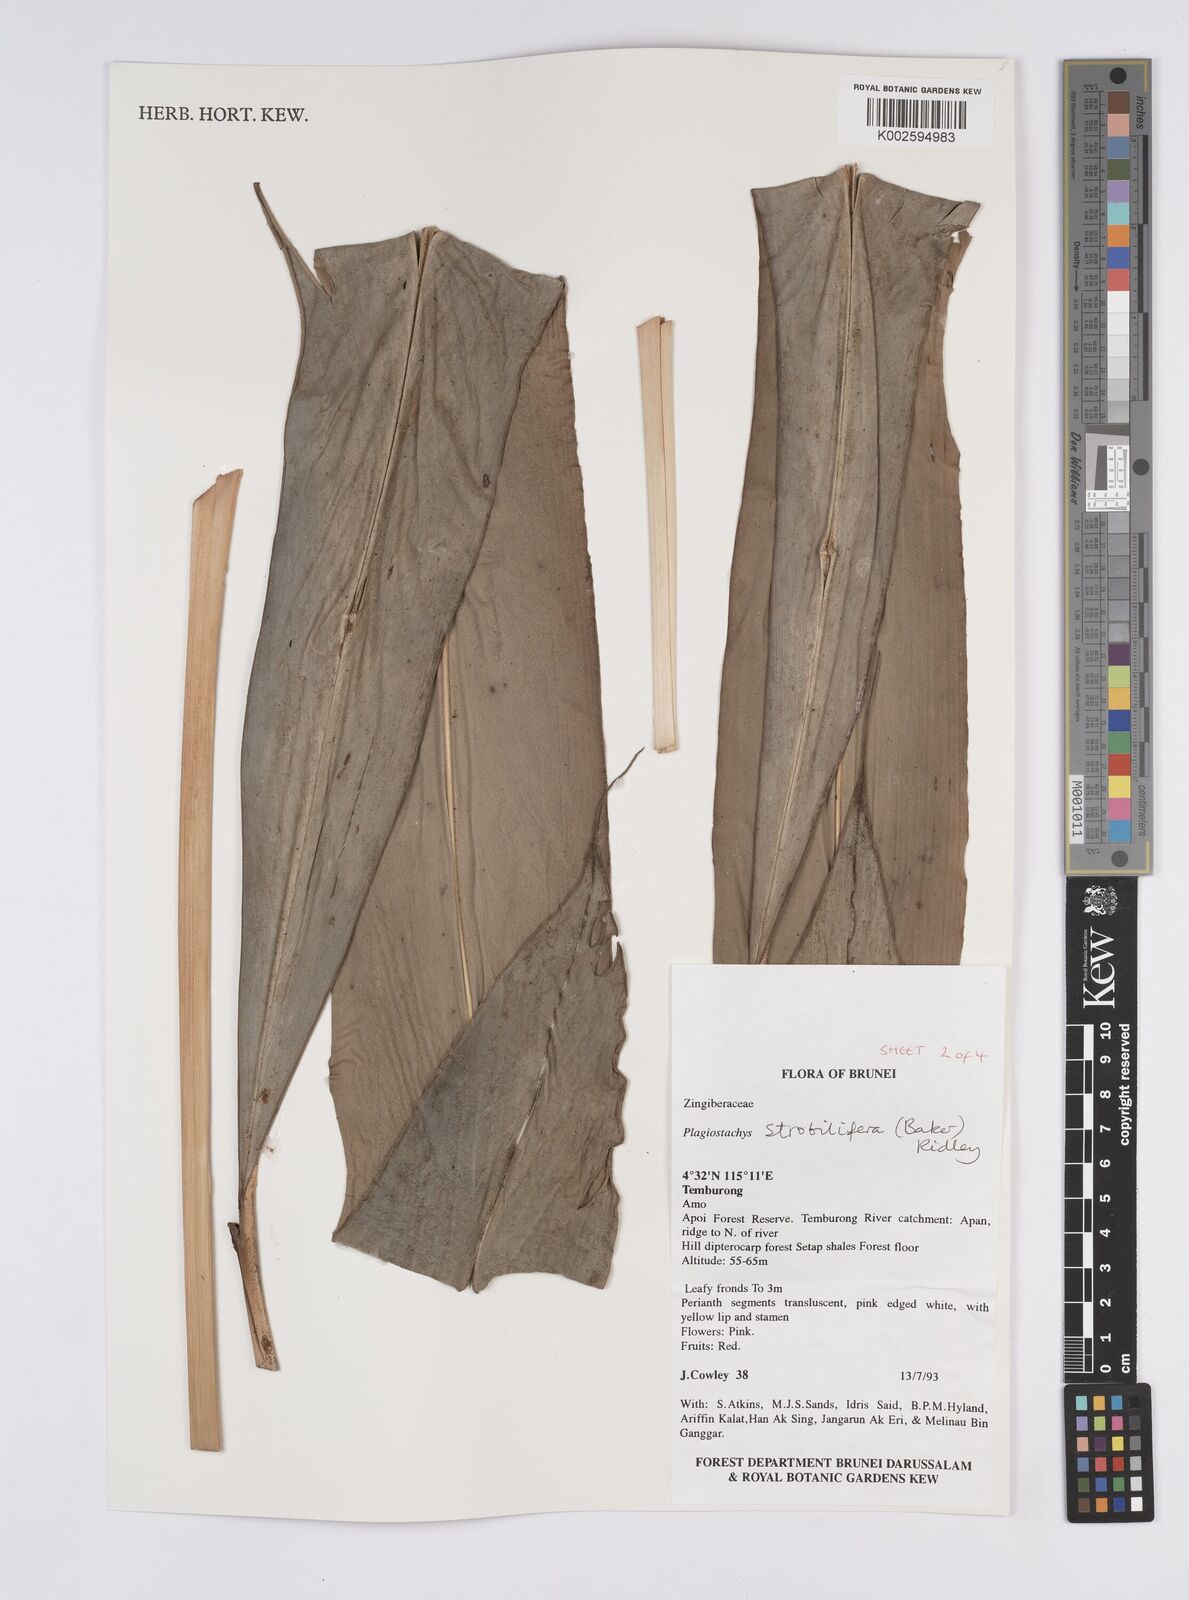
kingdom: Plantae
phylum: Tracheophyta
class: Liliopsida
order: Zingiberales
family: Zingiberaceae
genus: Plagiostachys
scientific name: Plagiostachys strobilifera
